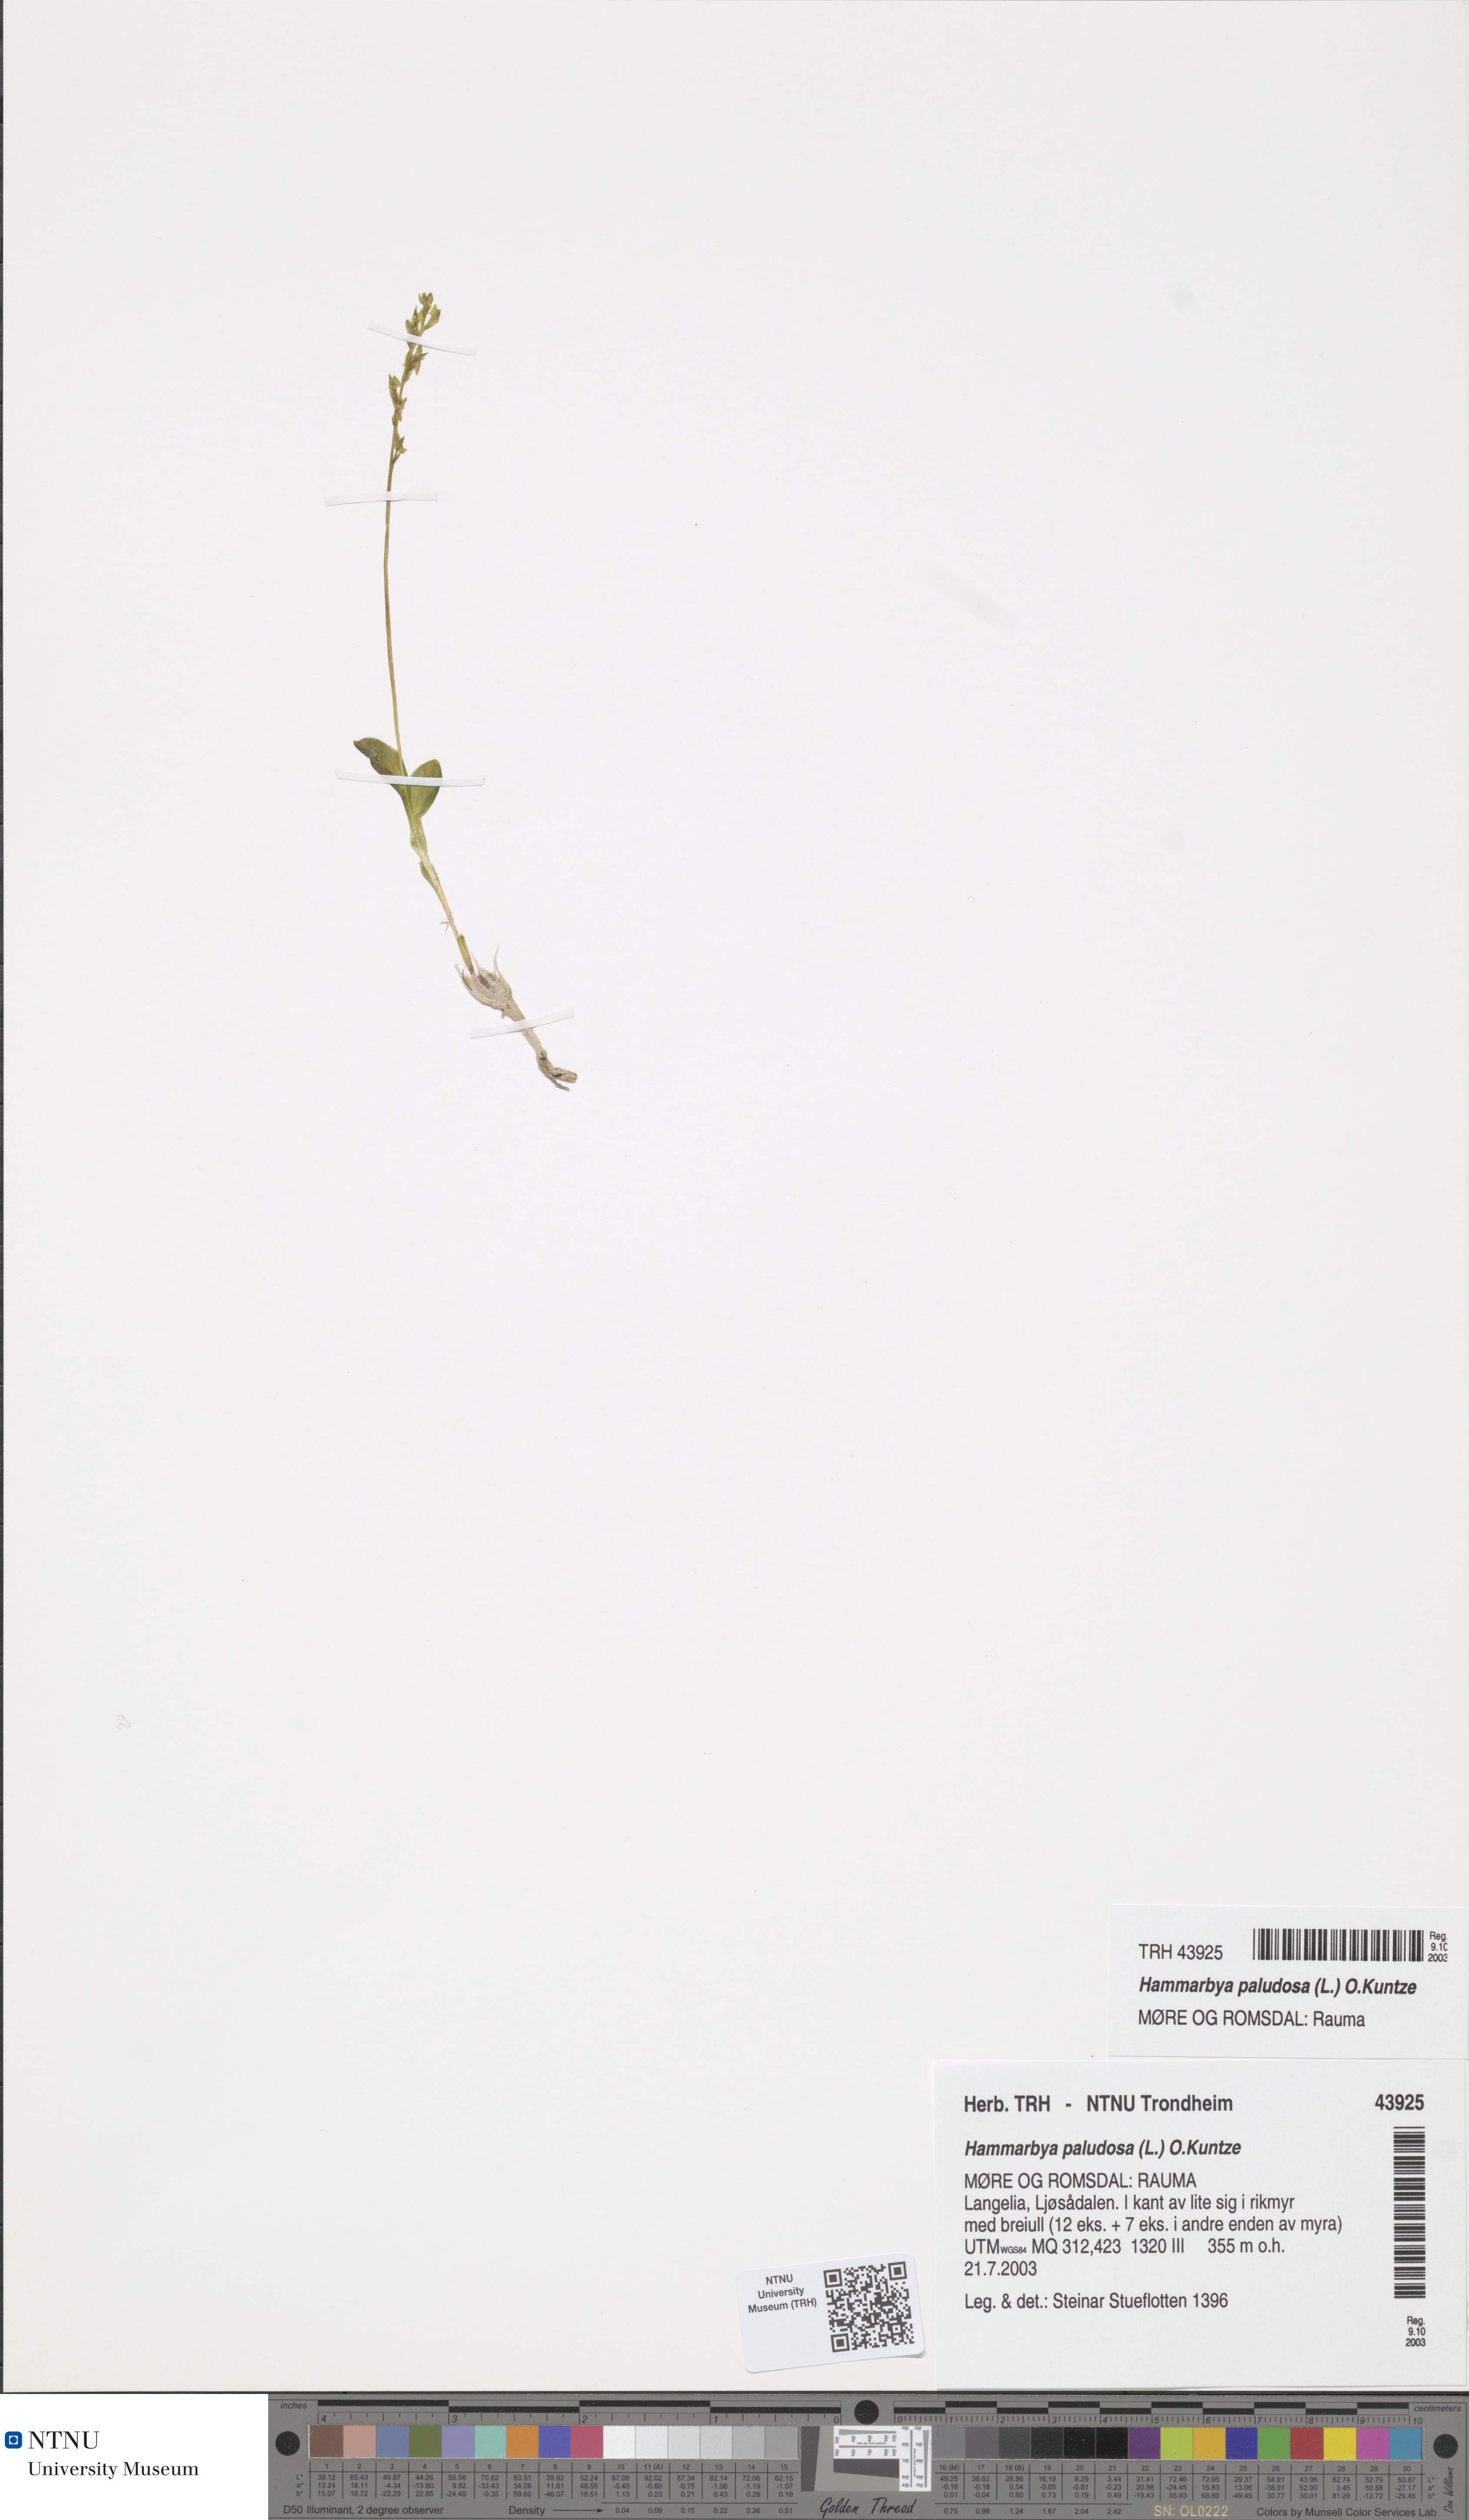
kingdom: Plantae
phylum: Tracheophyta
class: Liliopsida
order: Asparagales
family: Orchidaceae
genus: Hammarbya
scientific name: Hammarbya paludosa
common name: Bog orchid
